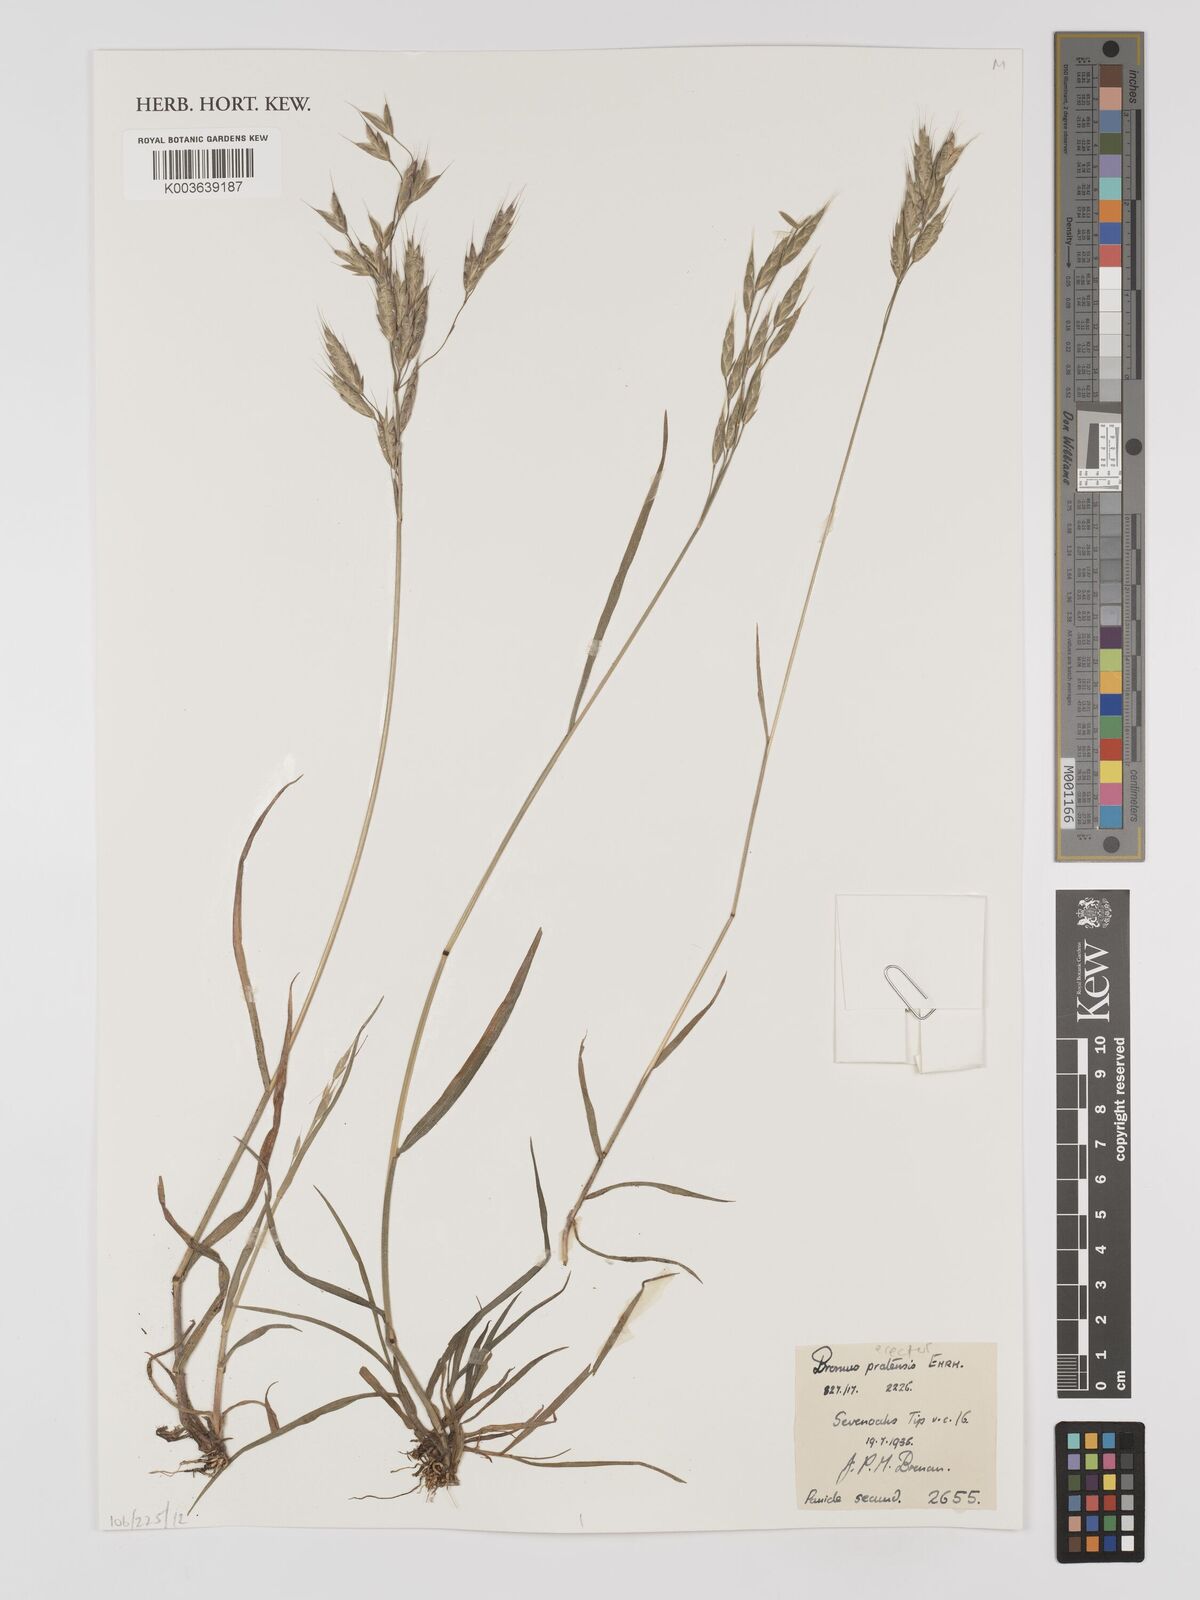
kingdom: Plantae
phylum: Tracheophyta
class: Liliopsida
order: Poales
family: Poaceae
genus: Bromus
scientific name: Bromus erectus
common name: Erect brome
